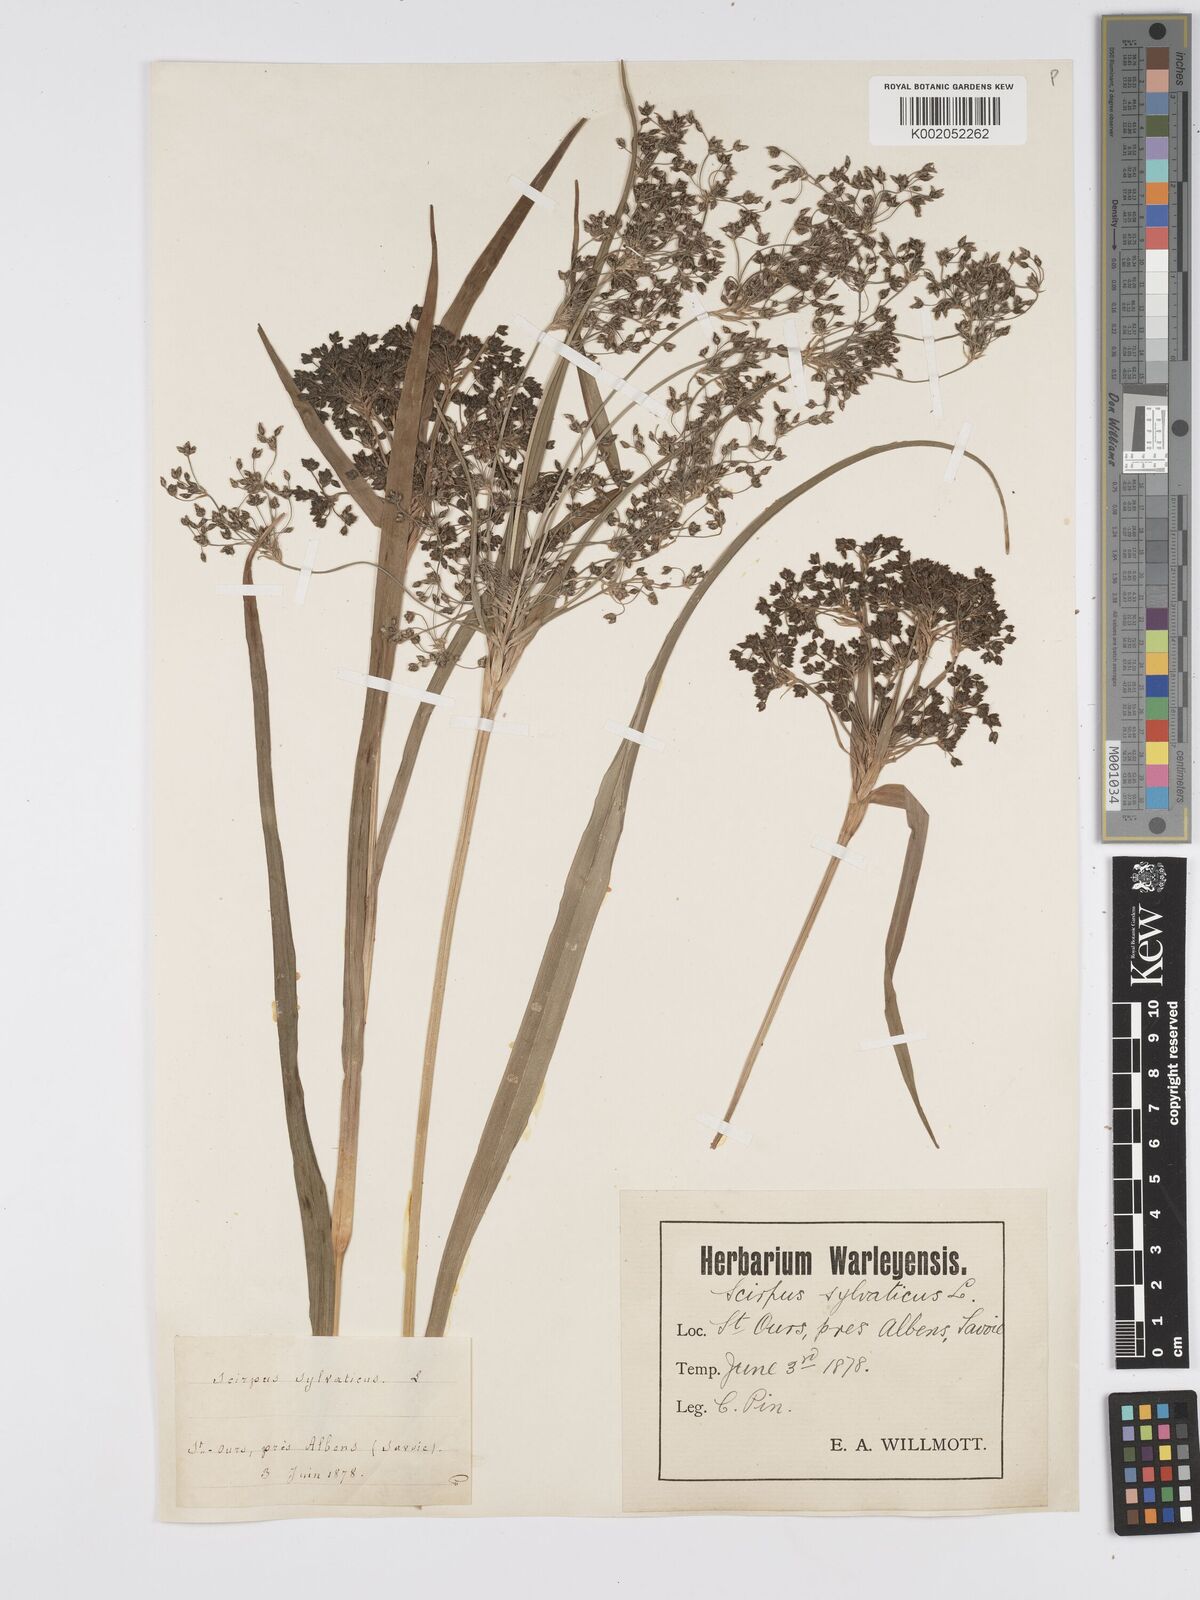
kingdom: Plantae
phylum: Tracheophyta
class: Liliopsida
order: Poales
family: Cyperaceae
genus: Scirpus
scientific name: Scirpus sylvaticus
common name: Wood club-rush
